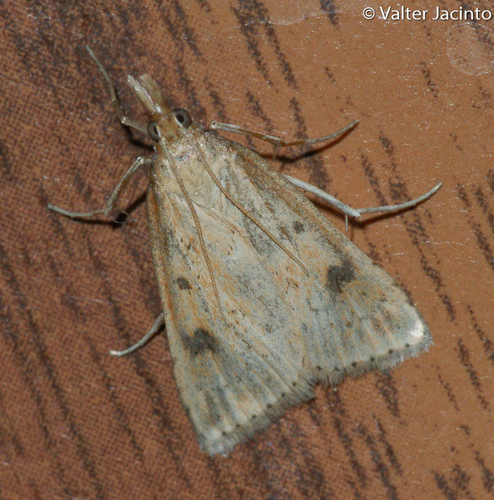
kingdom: Animalia
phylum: Arthropoda
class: Insecta
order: Lepidoptera
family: Crambidae
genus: Udea
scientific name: Udea numeralis
